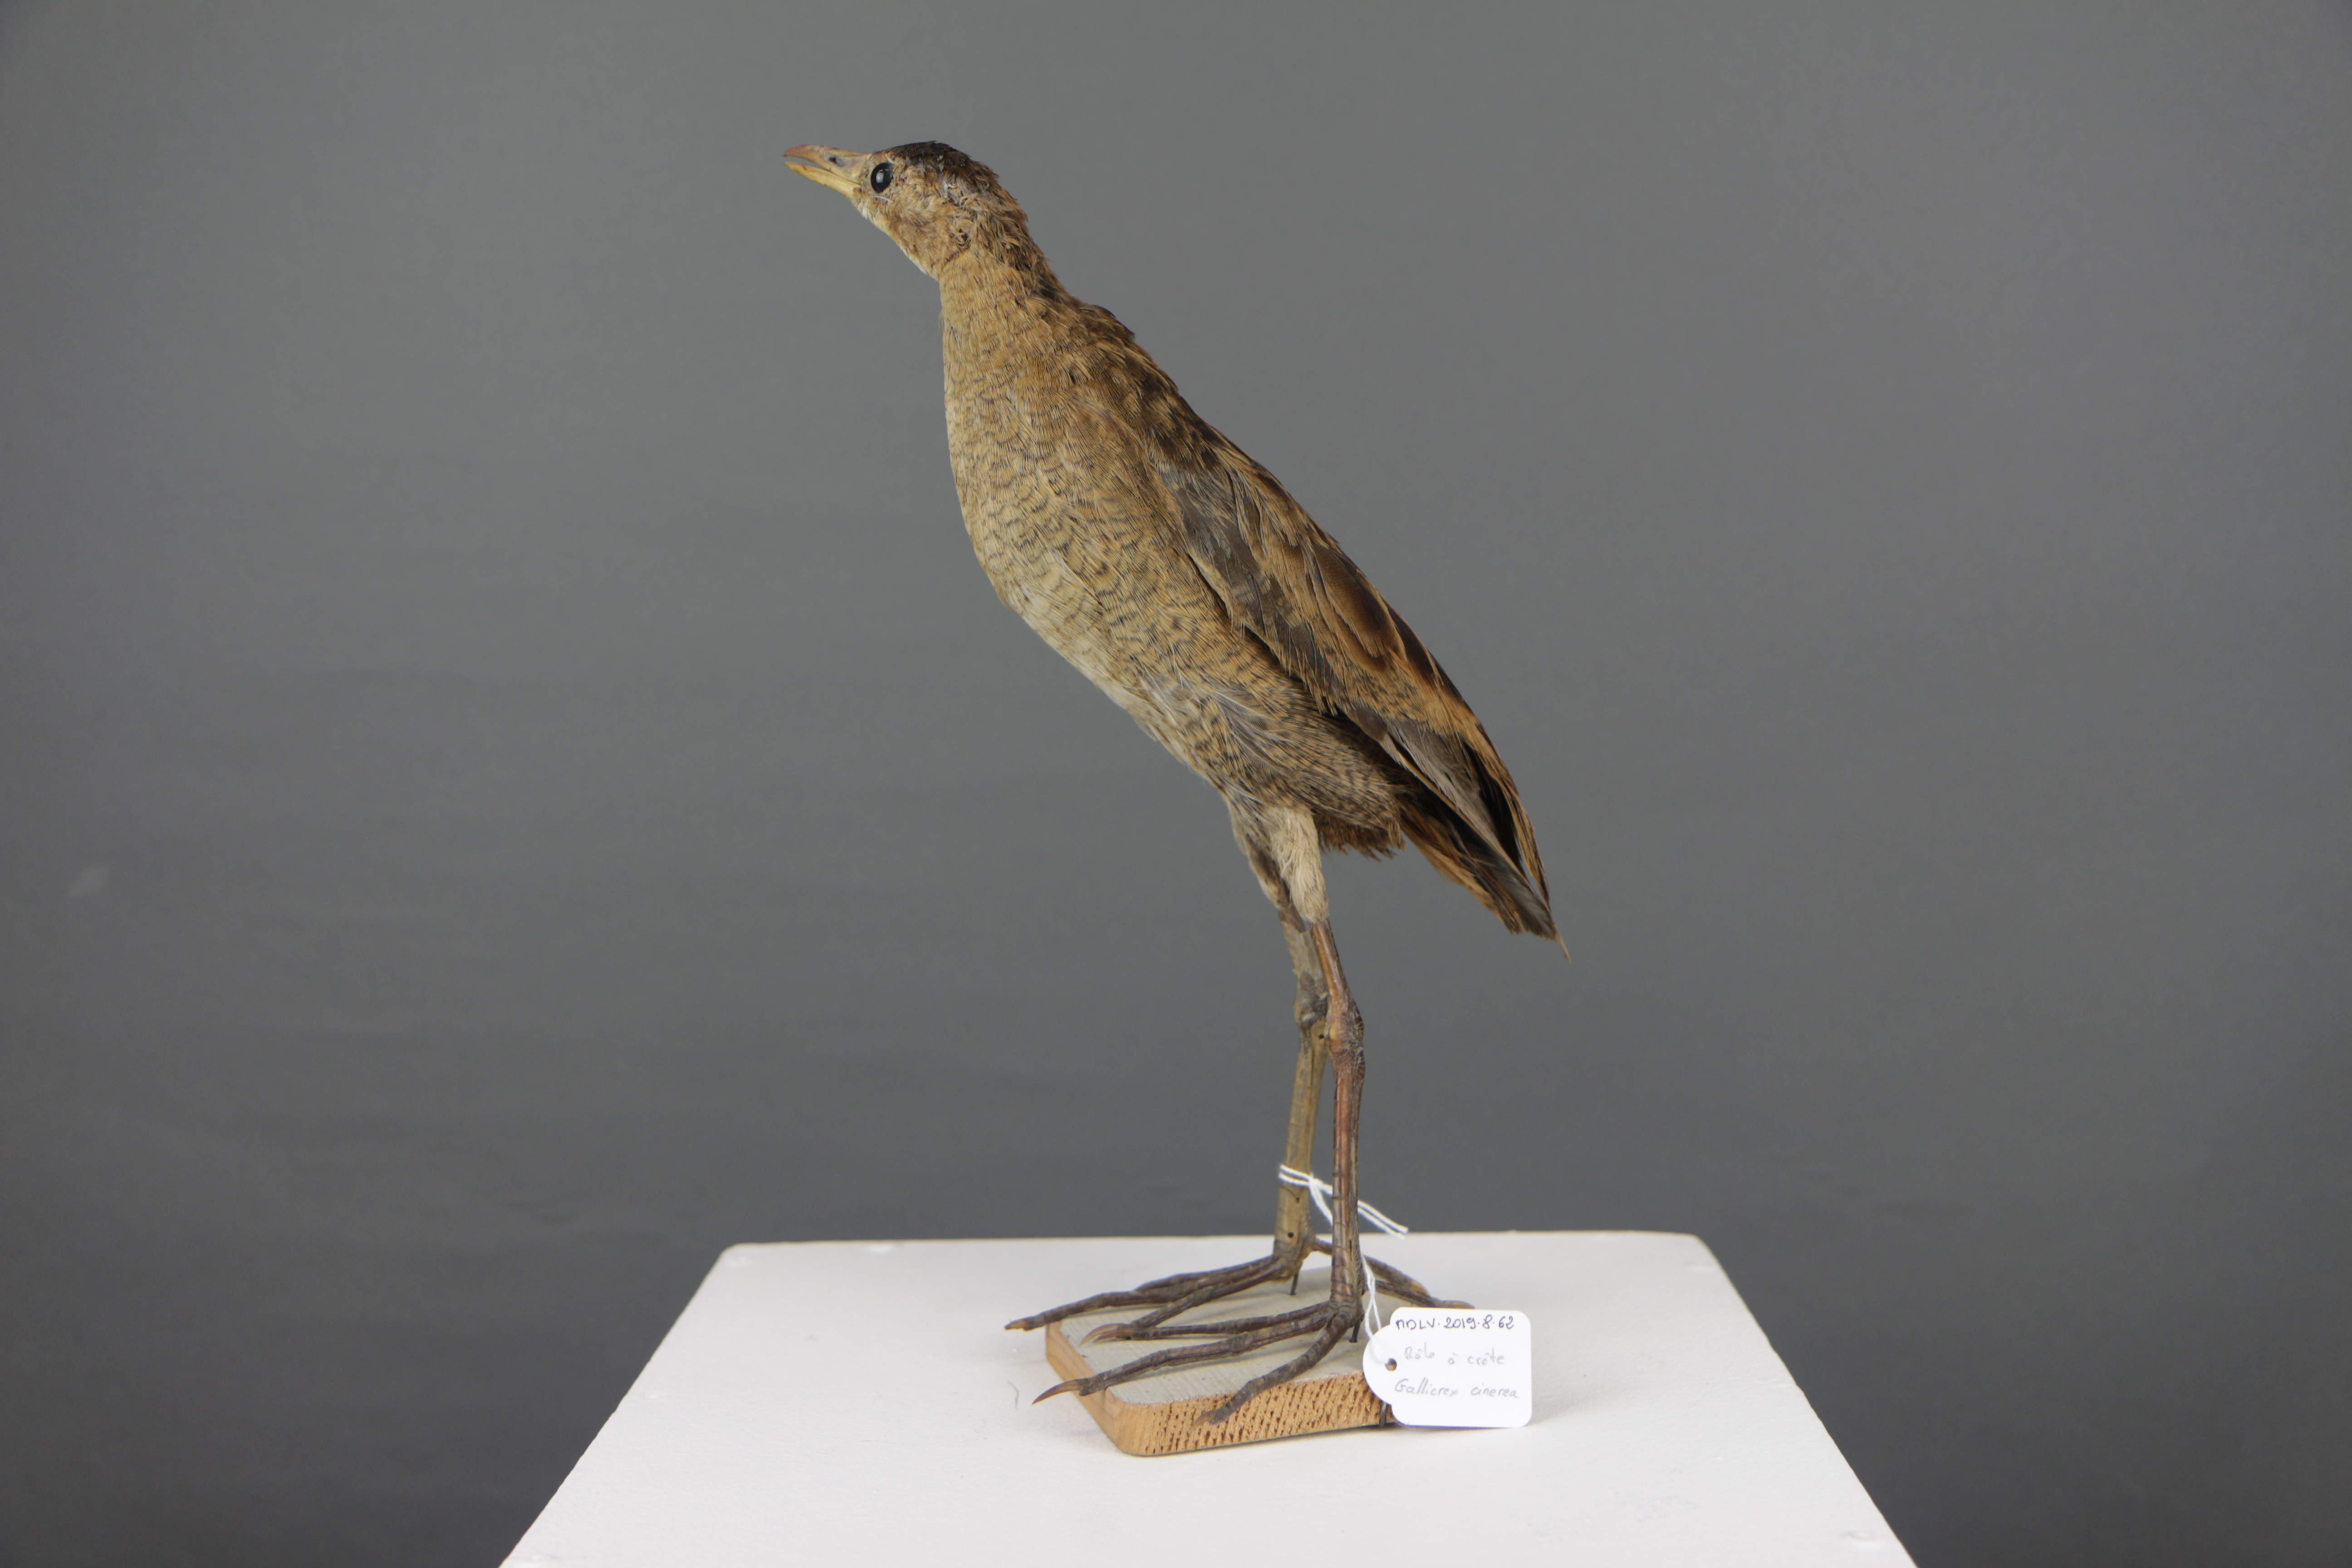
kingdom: Animalia
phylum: Chordata
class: Aves
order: Gruiformes
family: Rallidae
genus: Gallicrex
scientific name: Gallicrex cinerea
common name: Watercock
